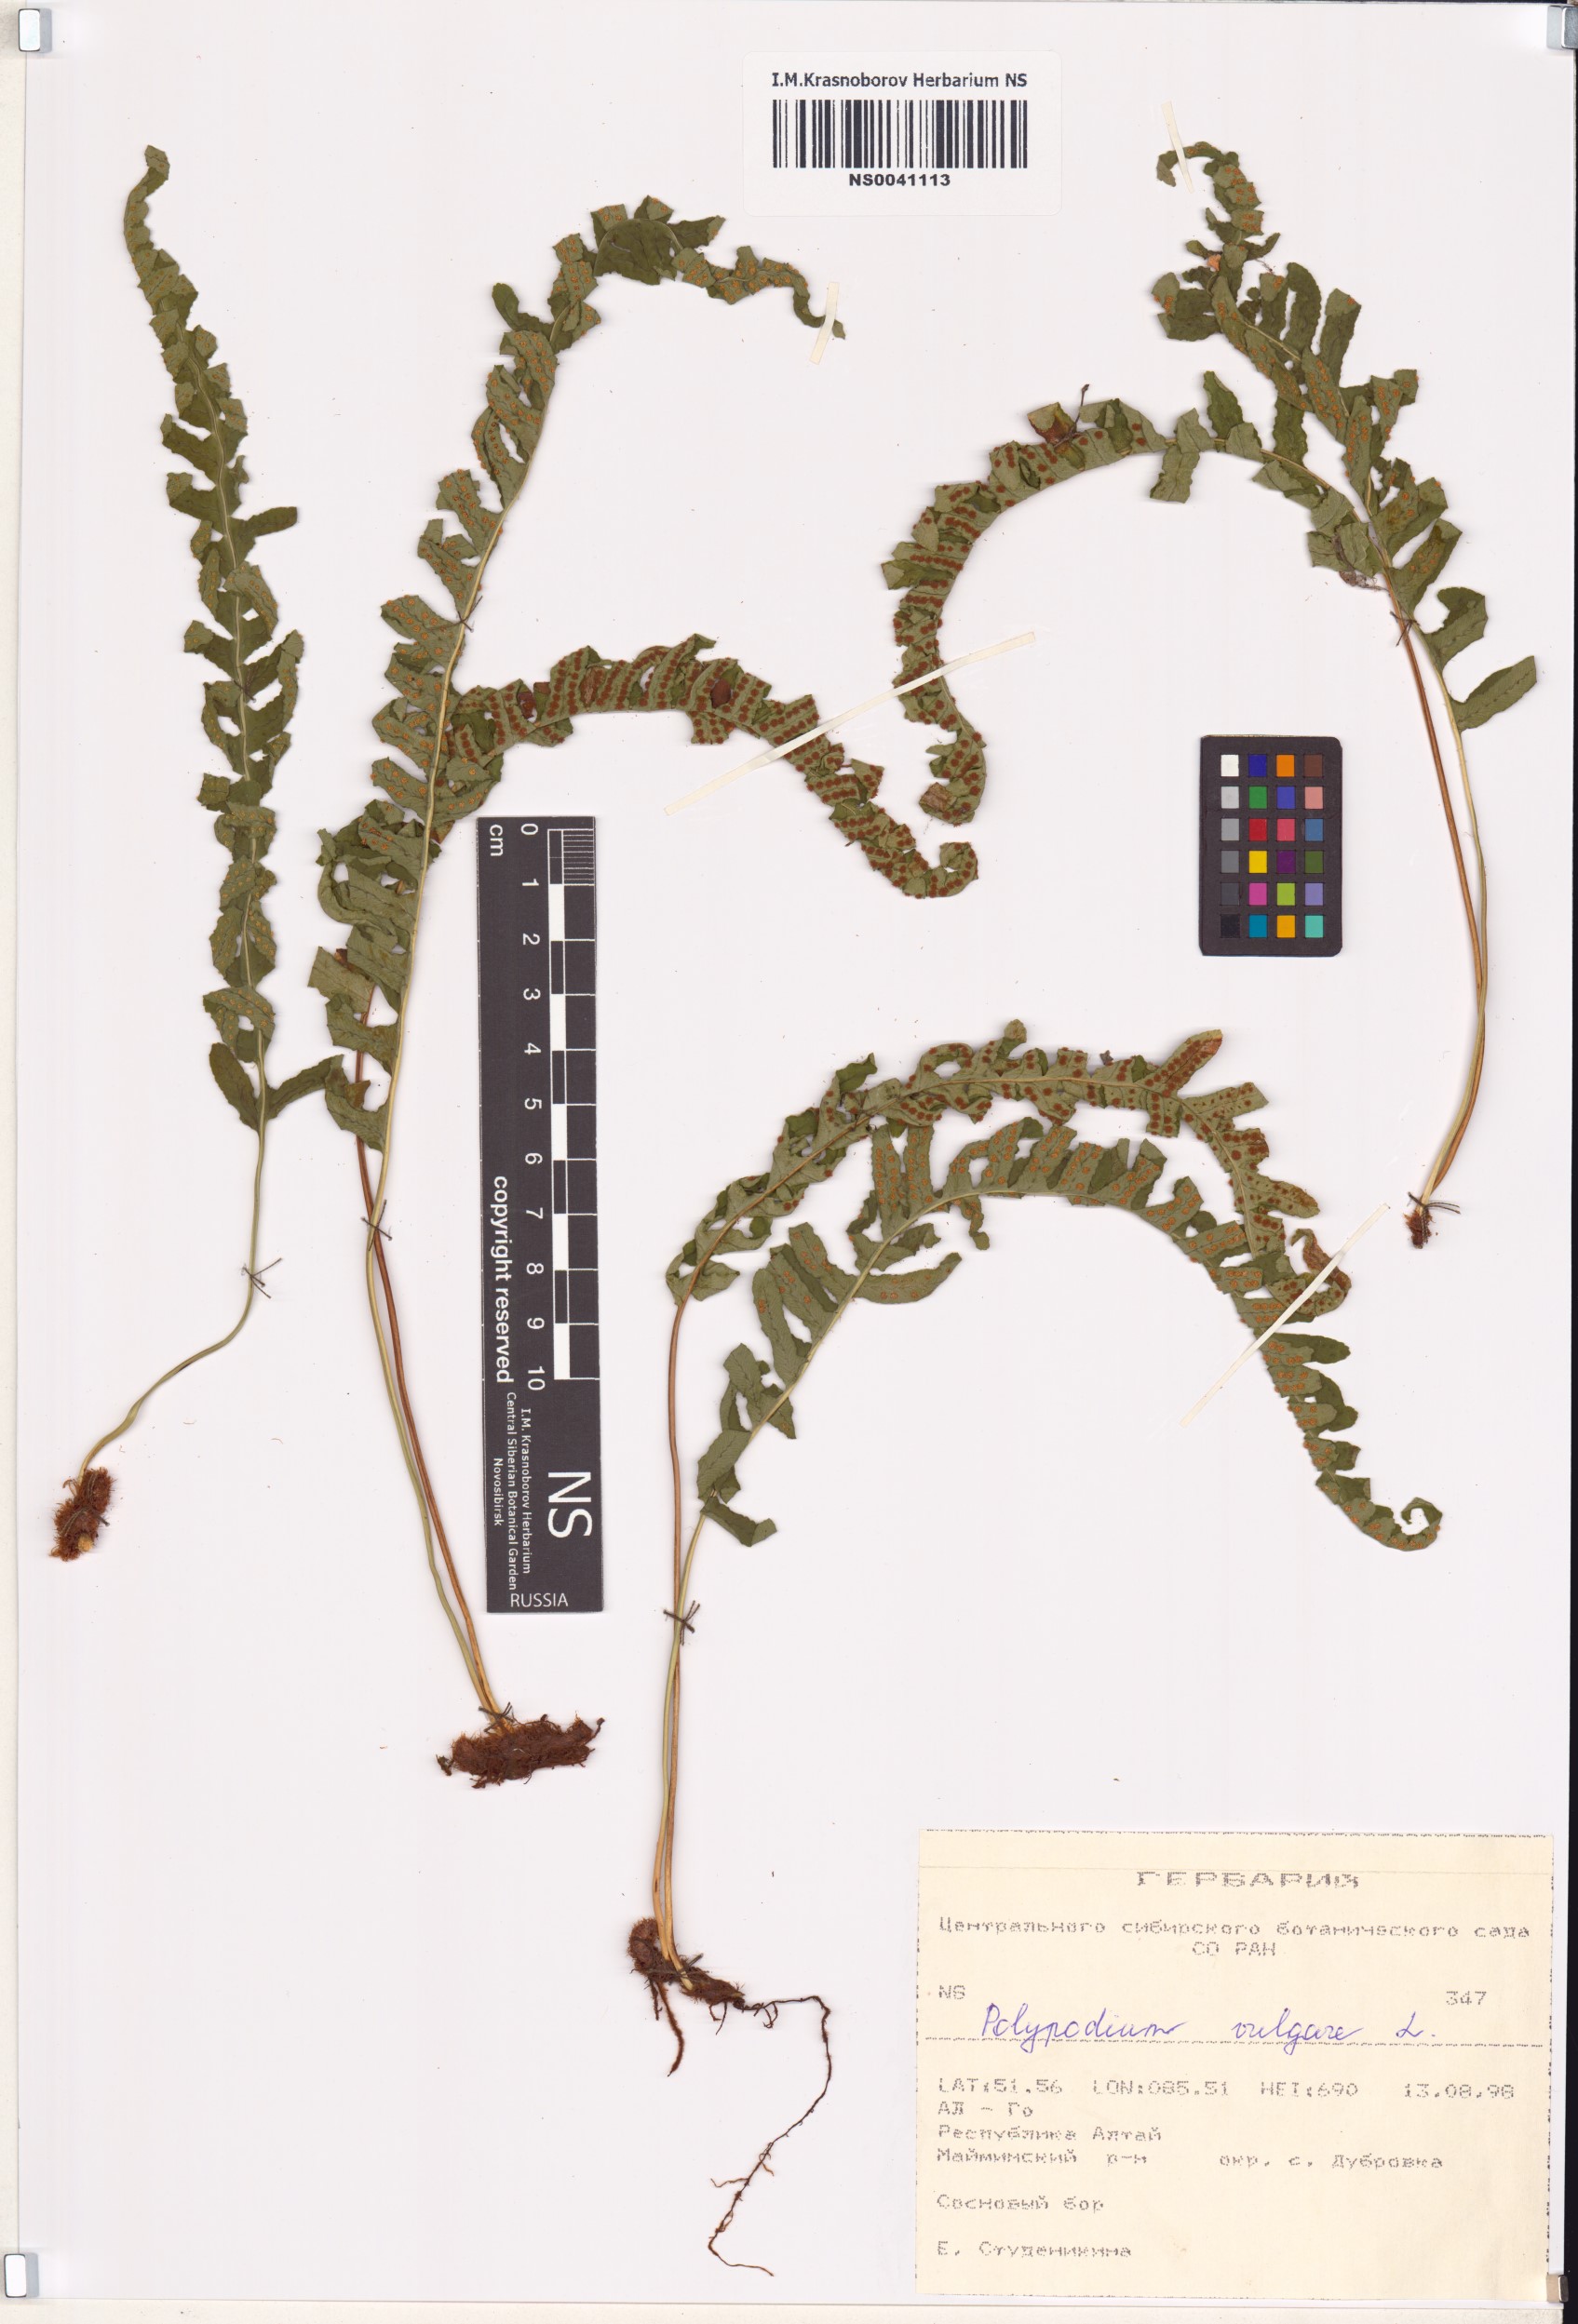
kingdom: Plantae
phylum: Tracheophyta
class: Polypodiopsida
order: Polypodiales
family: Polypodiaceae
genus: Polypodium
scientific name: Polypodium vulgare
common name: Common polypody
